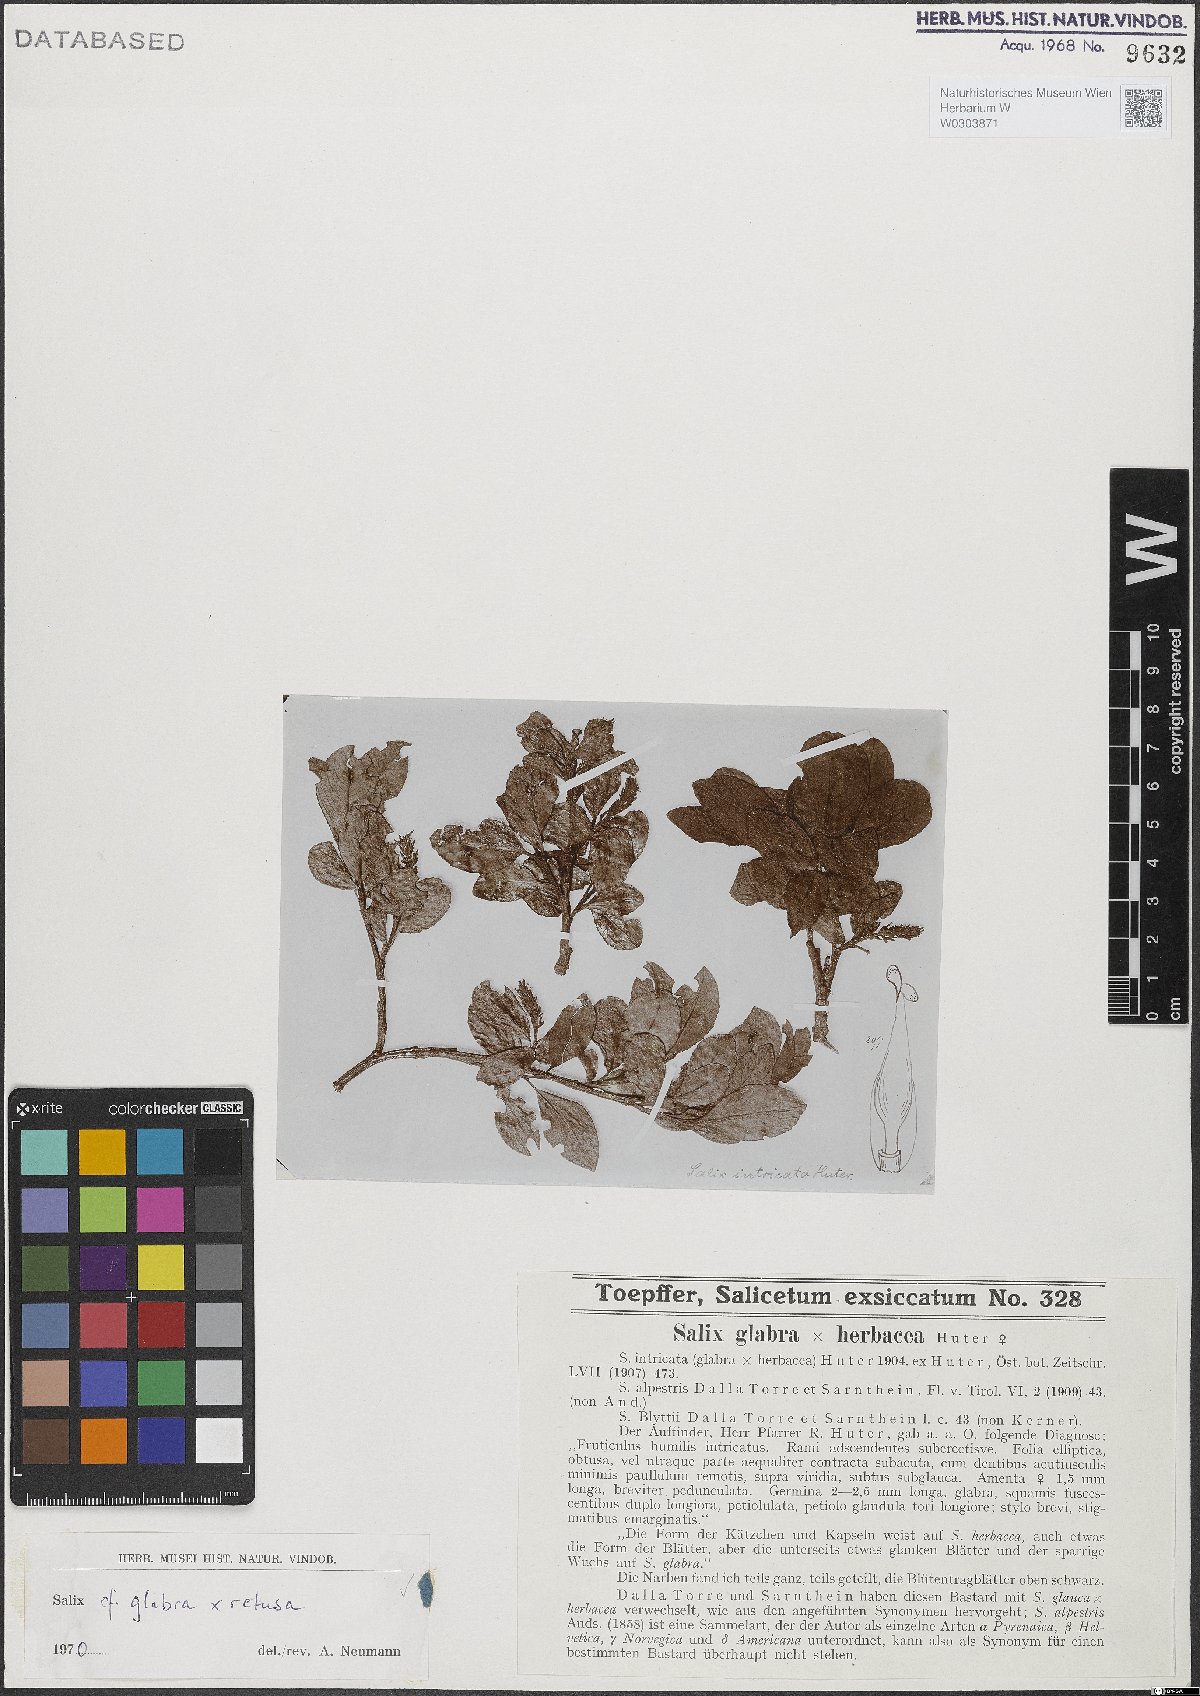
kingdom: Plantae
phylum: Tracheophyta
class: Magnoliopsida
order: Malpighiales
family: Salicaceae
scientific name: Salicaceae
